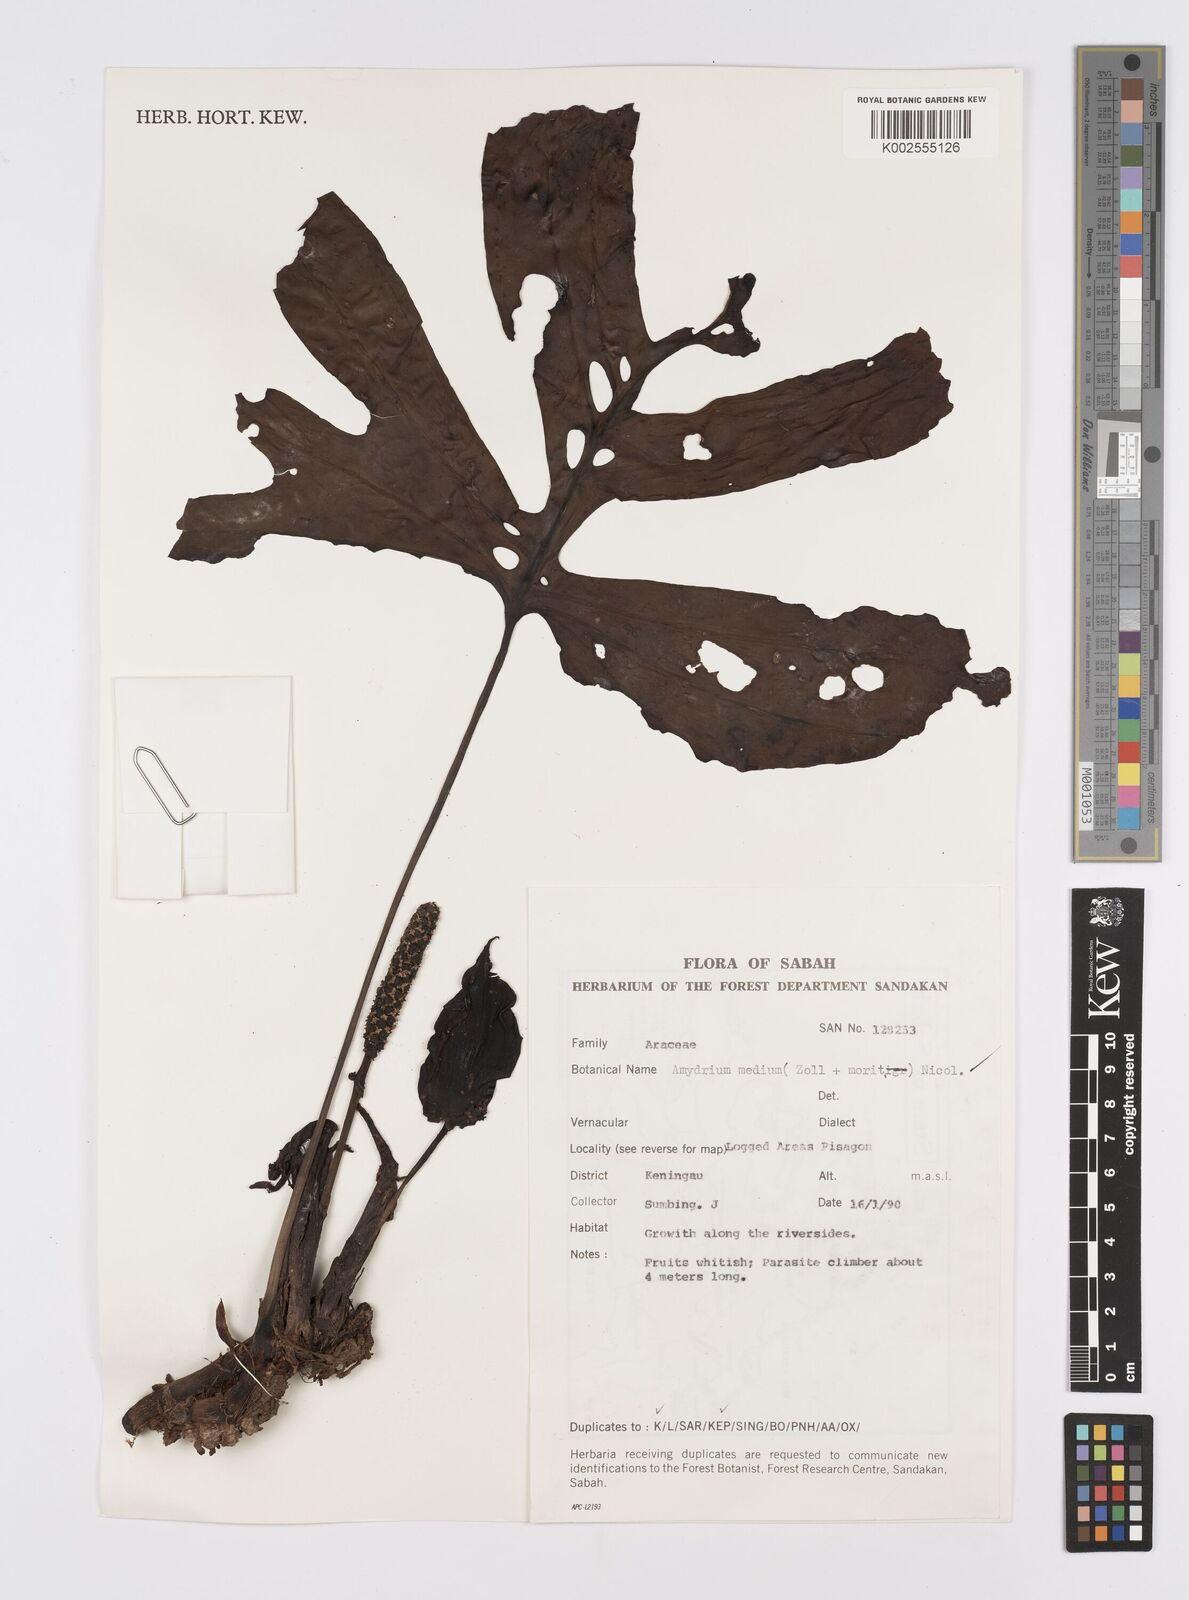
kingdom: Plantae
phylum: Tracheophyta
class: Liliopsida
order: Alismatales
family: Araceae
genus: Amydrium
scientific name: Amydrium medium
